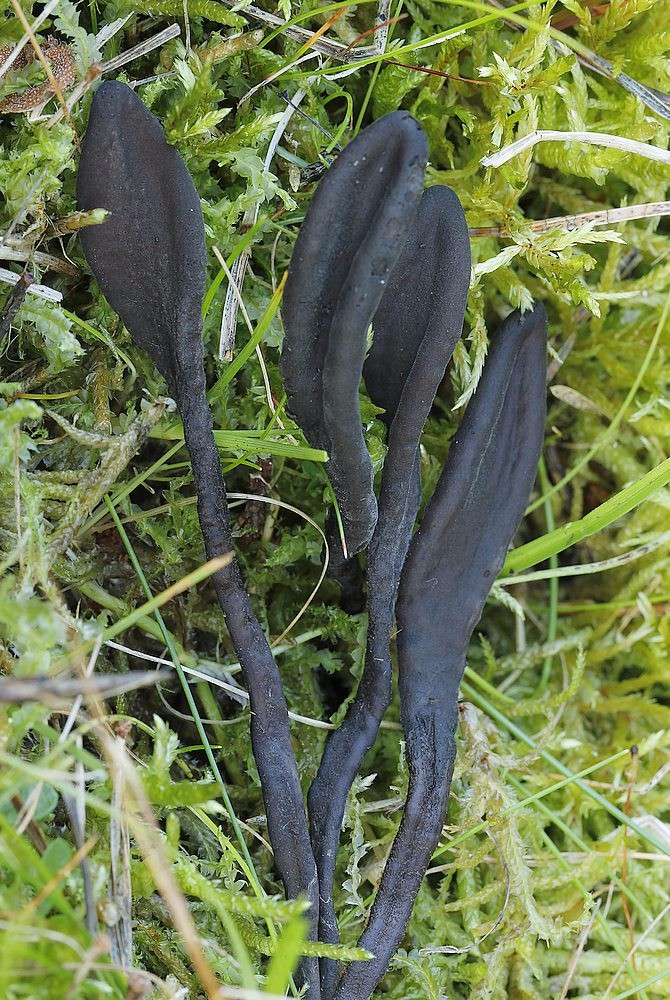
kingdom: Fungi
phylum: Ascomycota
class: Geoglossomycetes
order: Geoglossales
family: Geoglossaceae
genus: Hemileucoglossum
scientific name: Hemileucoglossum elongatum
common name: småsporet jordtunge
